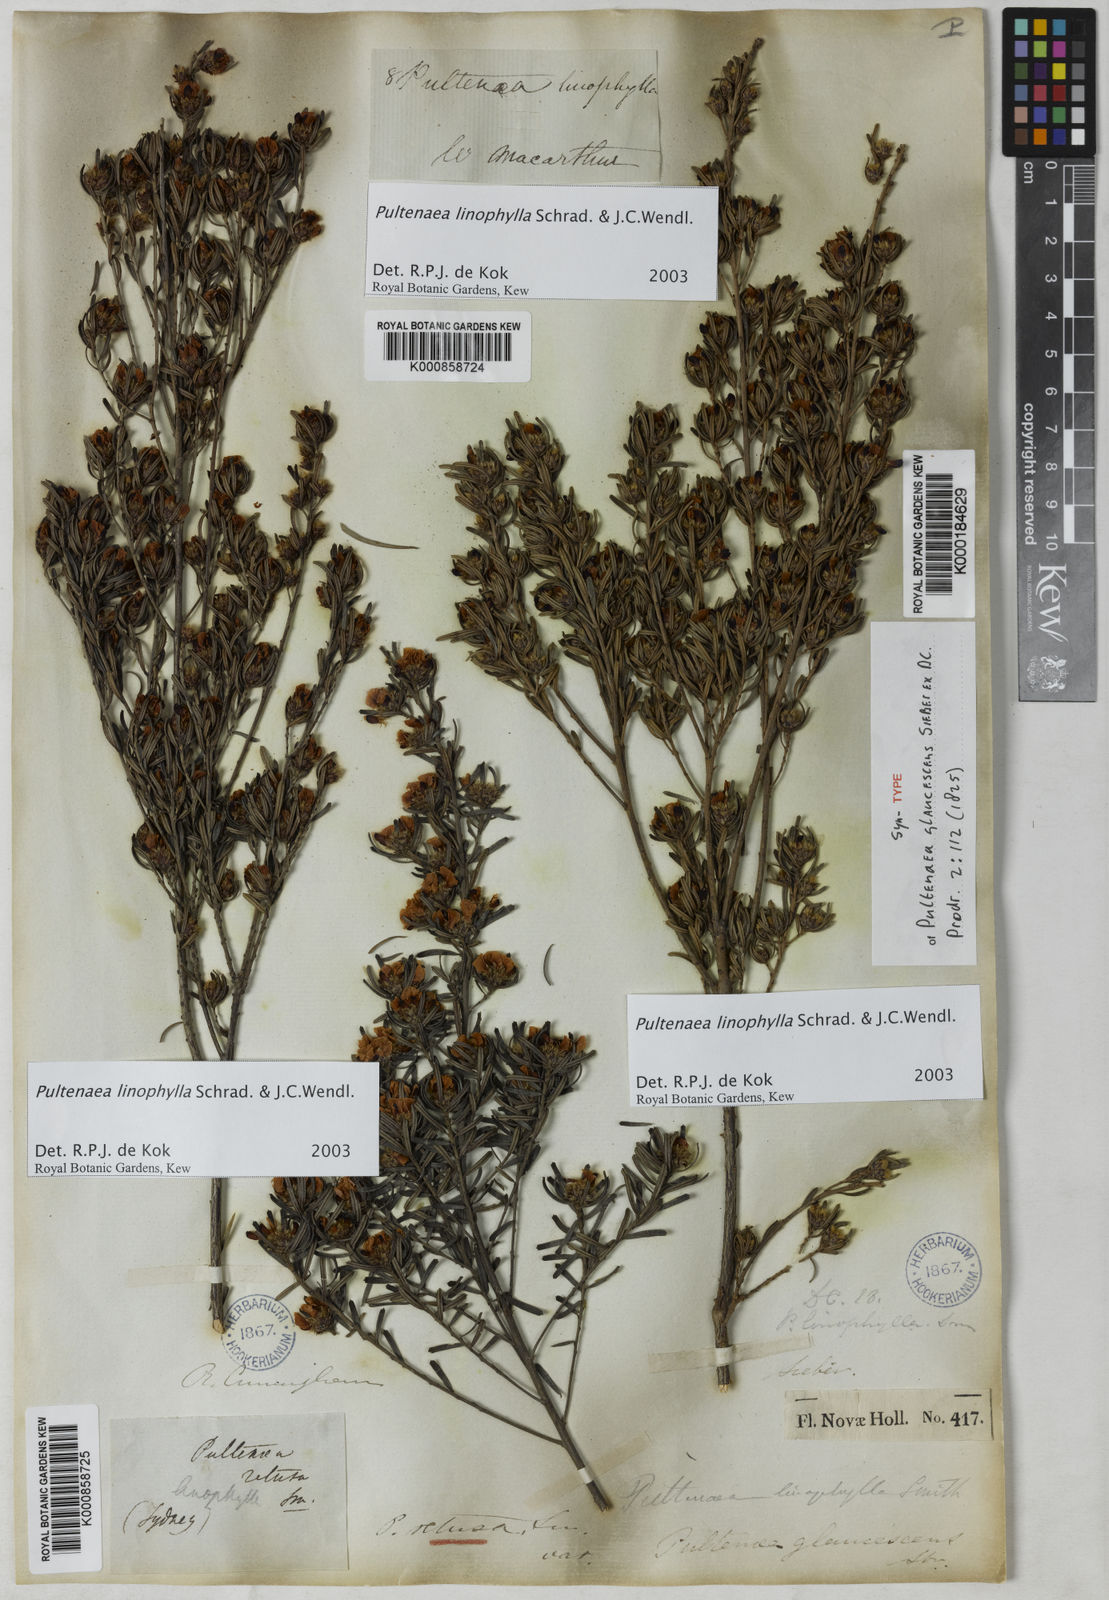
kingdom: Plantae
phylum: Tracheophyta
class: Magnoliopsida
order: Fabales
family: Fabaceae
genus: Pultenaea
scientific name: Pultenaea linophylla
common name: Halo bush-pea
